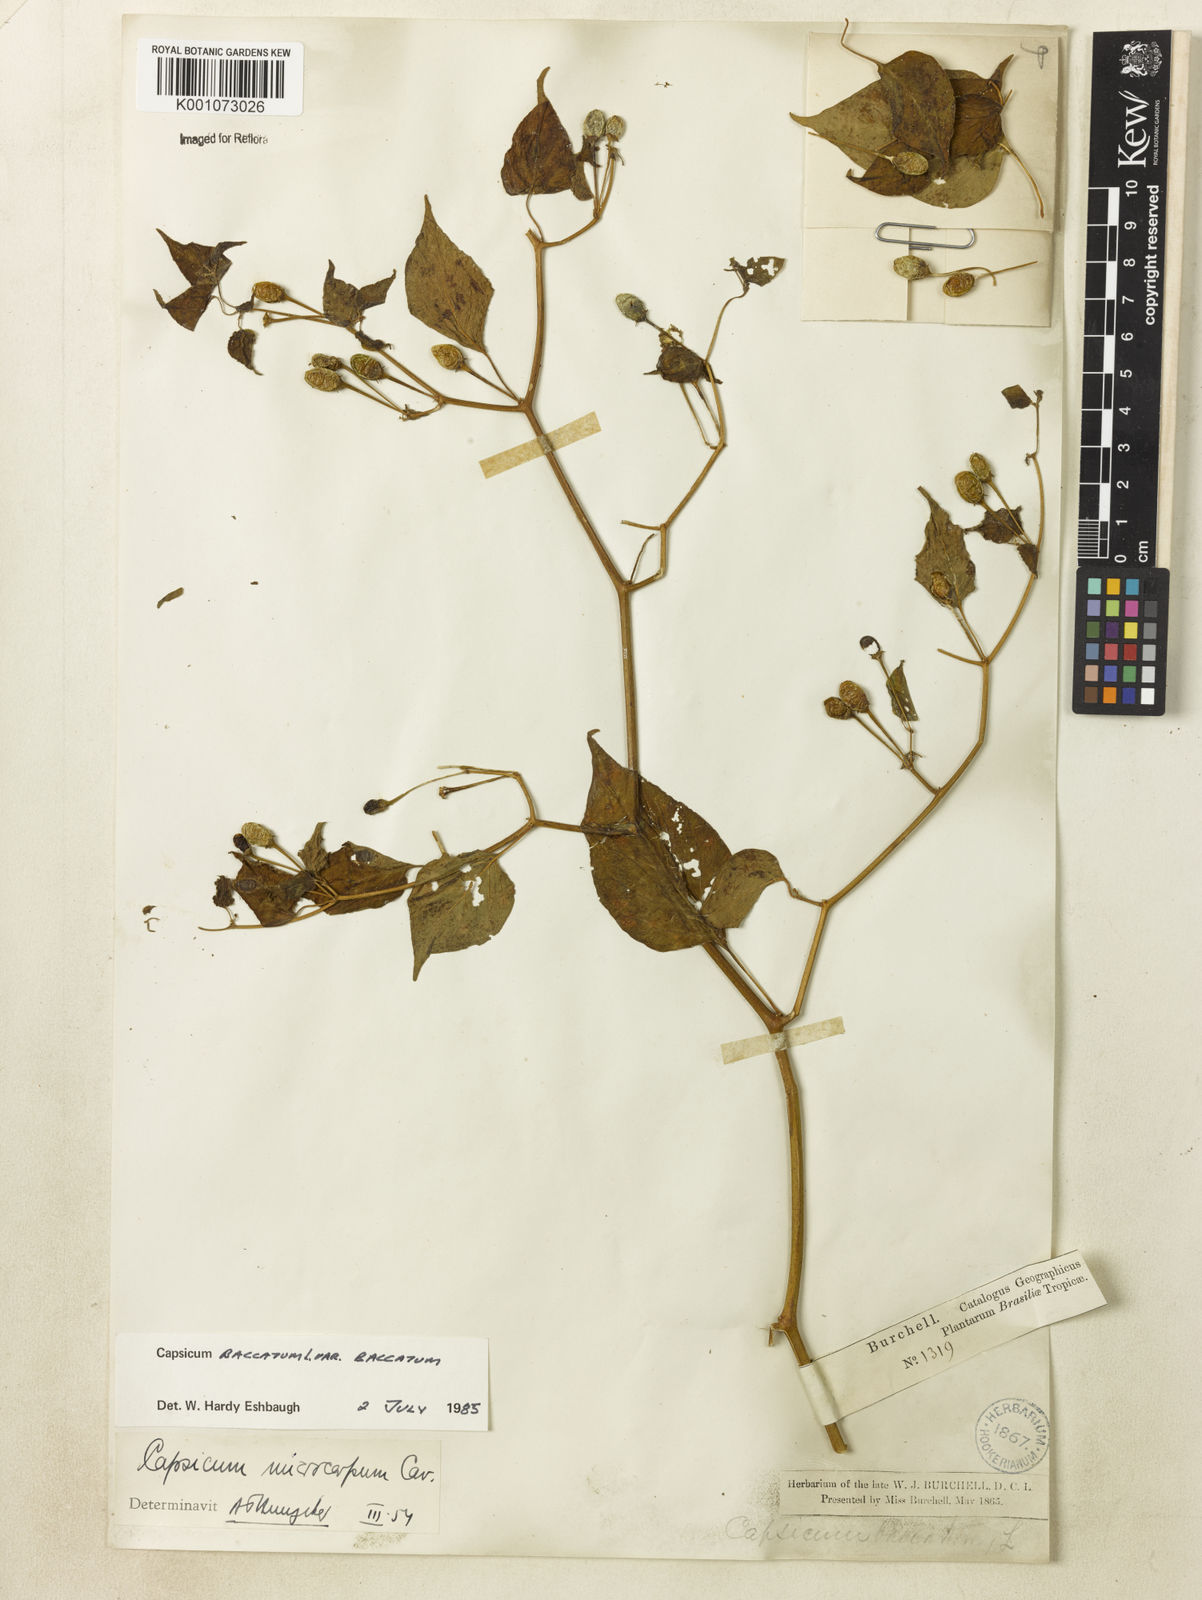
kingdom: Plantae
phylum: Tracheophyta
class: Magnoliopsida
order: Solanales
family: Solanaceae
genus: Capsicum
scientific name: Capsicum baccatum
